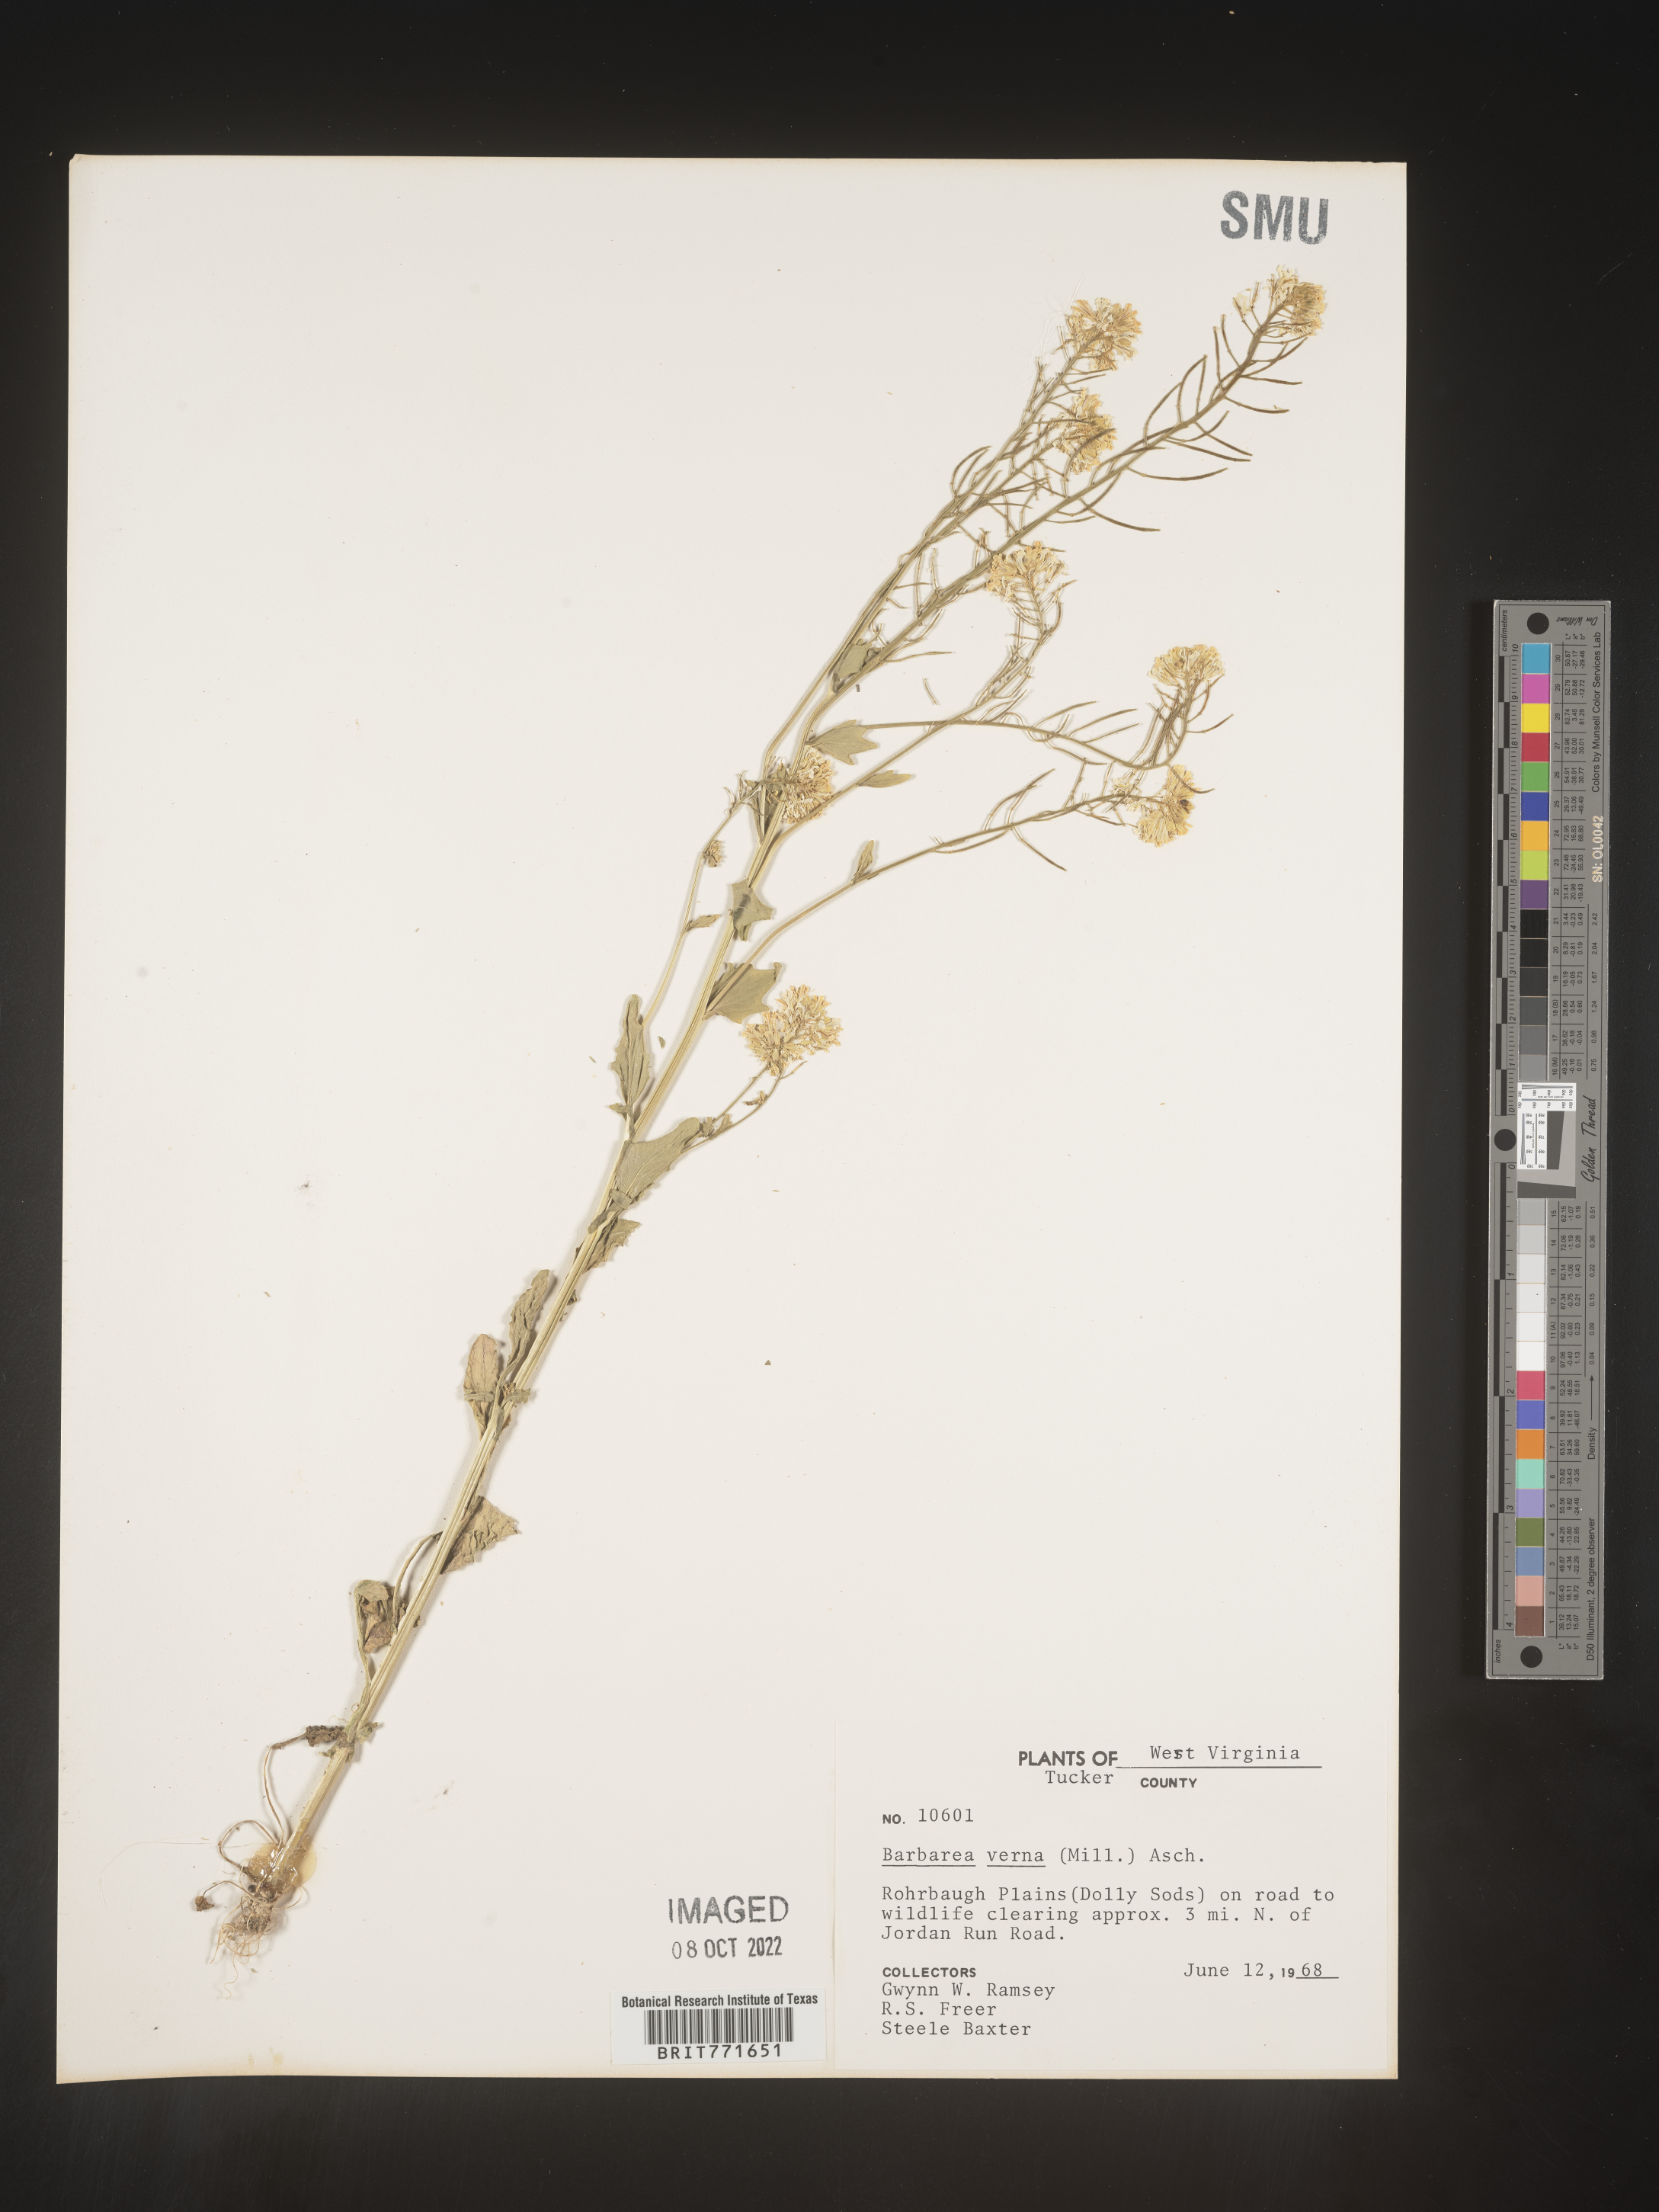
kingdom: Plantae
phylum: Tracheophyta
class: Magnoliopsida
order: Brassicales
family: Brassicaceae
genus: Barbarea
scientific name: Barbarea verna
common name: American cress
